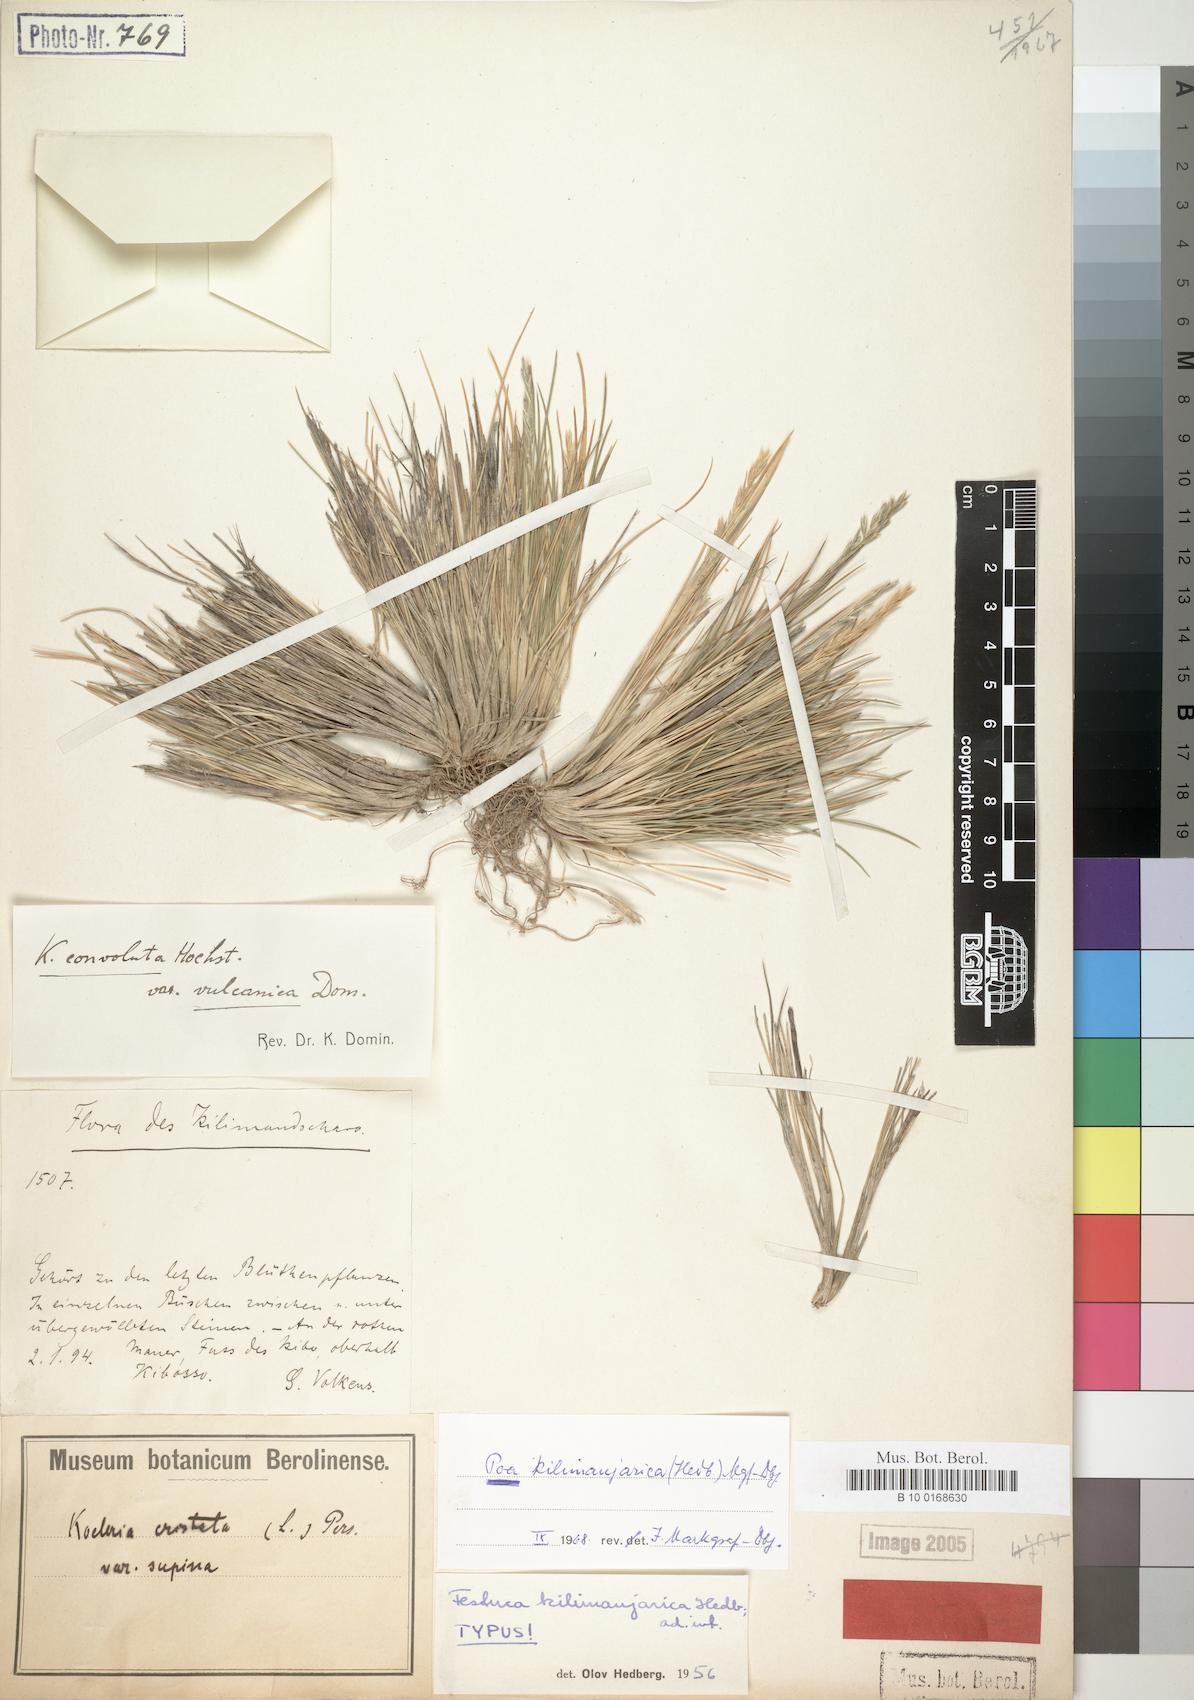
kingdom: Plantae
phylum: Tracheophyta
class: Liliopsida
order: Poales
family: Poaceae
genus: Poa
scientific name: Poa kilimanjarica
